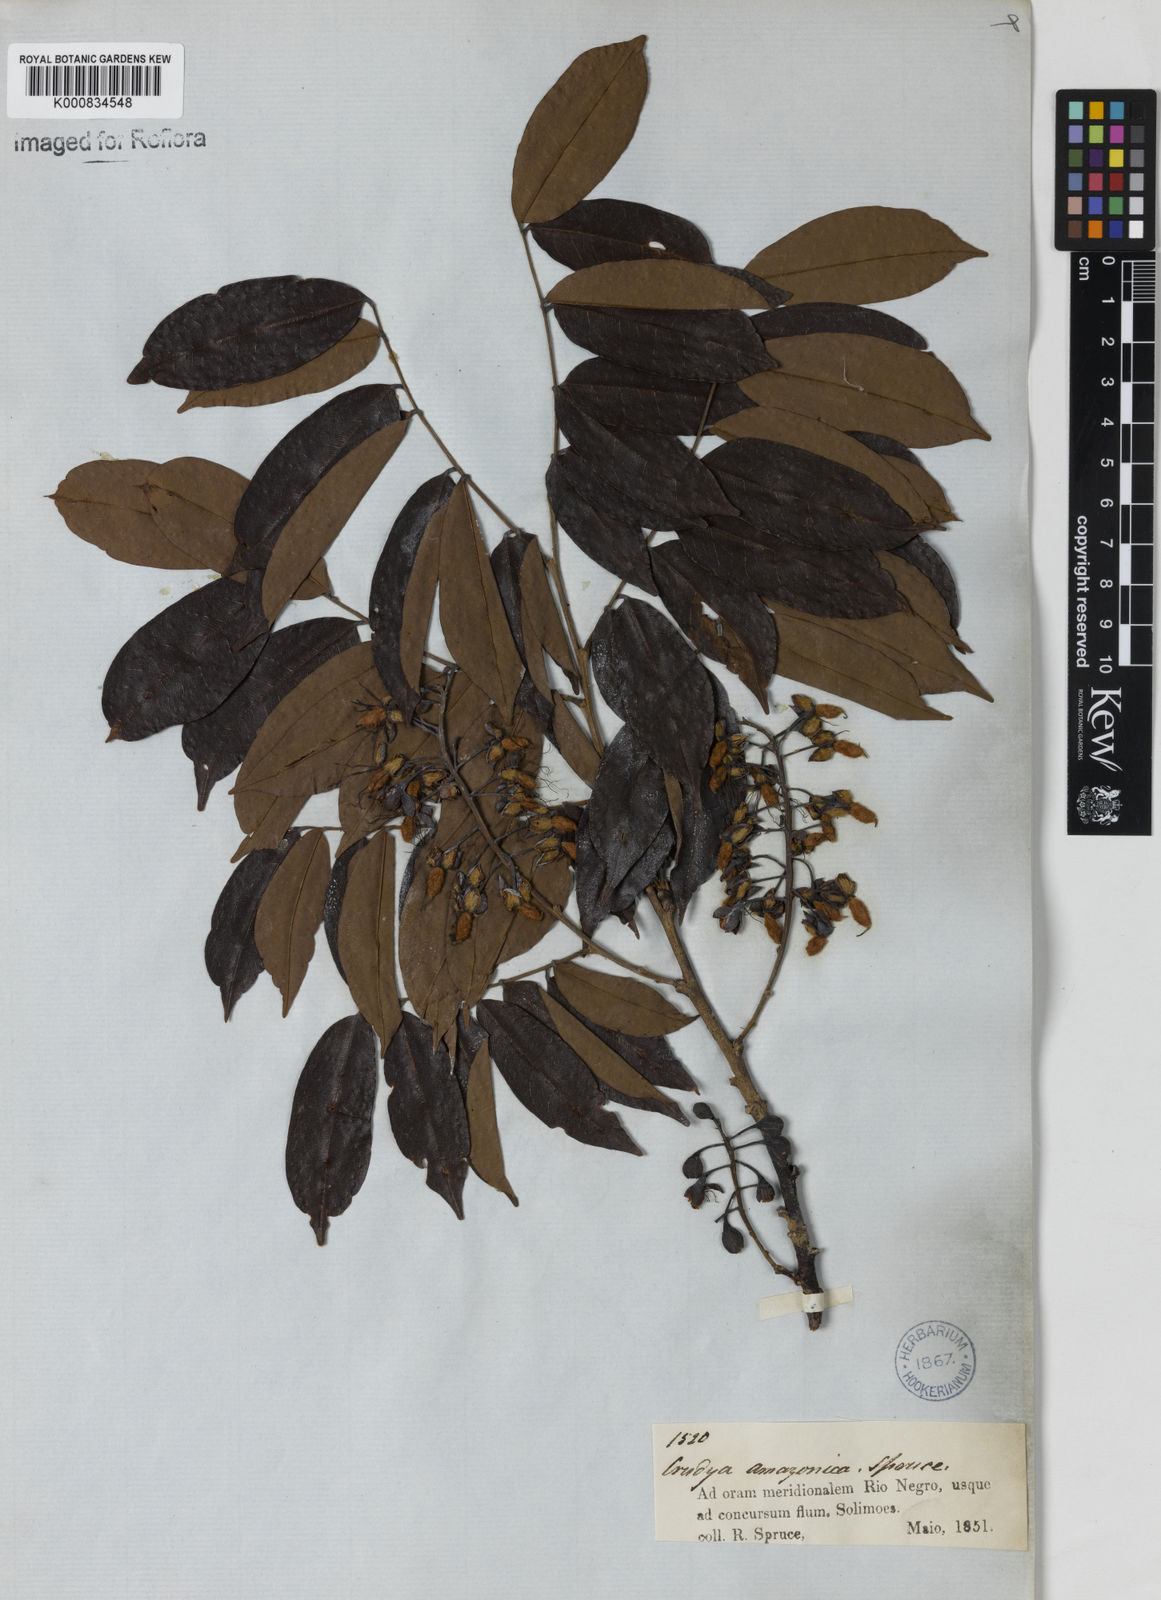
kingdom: Plantae
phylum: Tracheophyta
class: Magnoliopsida
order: Fabales
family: Fabaceae
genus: Crudia
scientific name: Crudia
